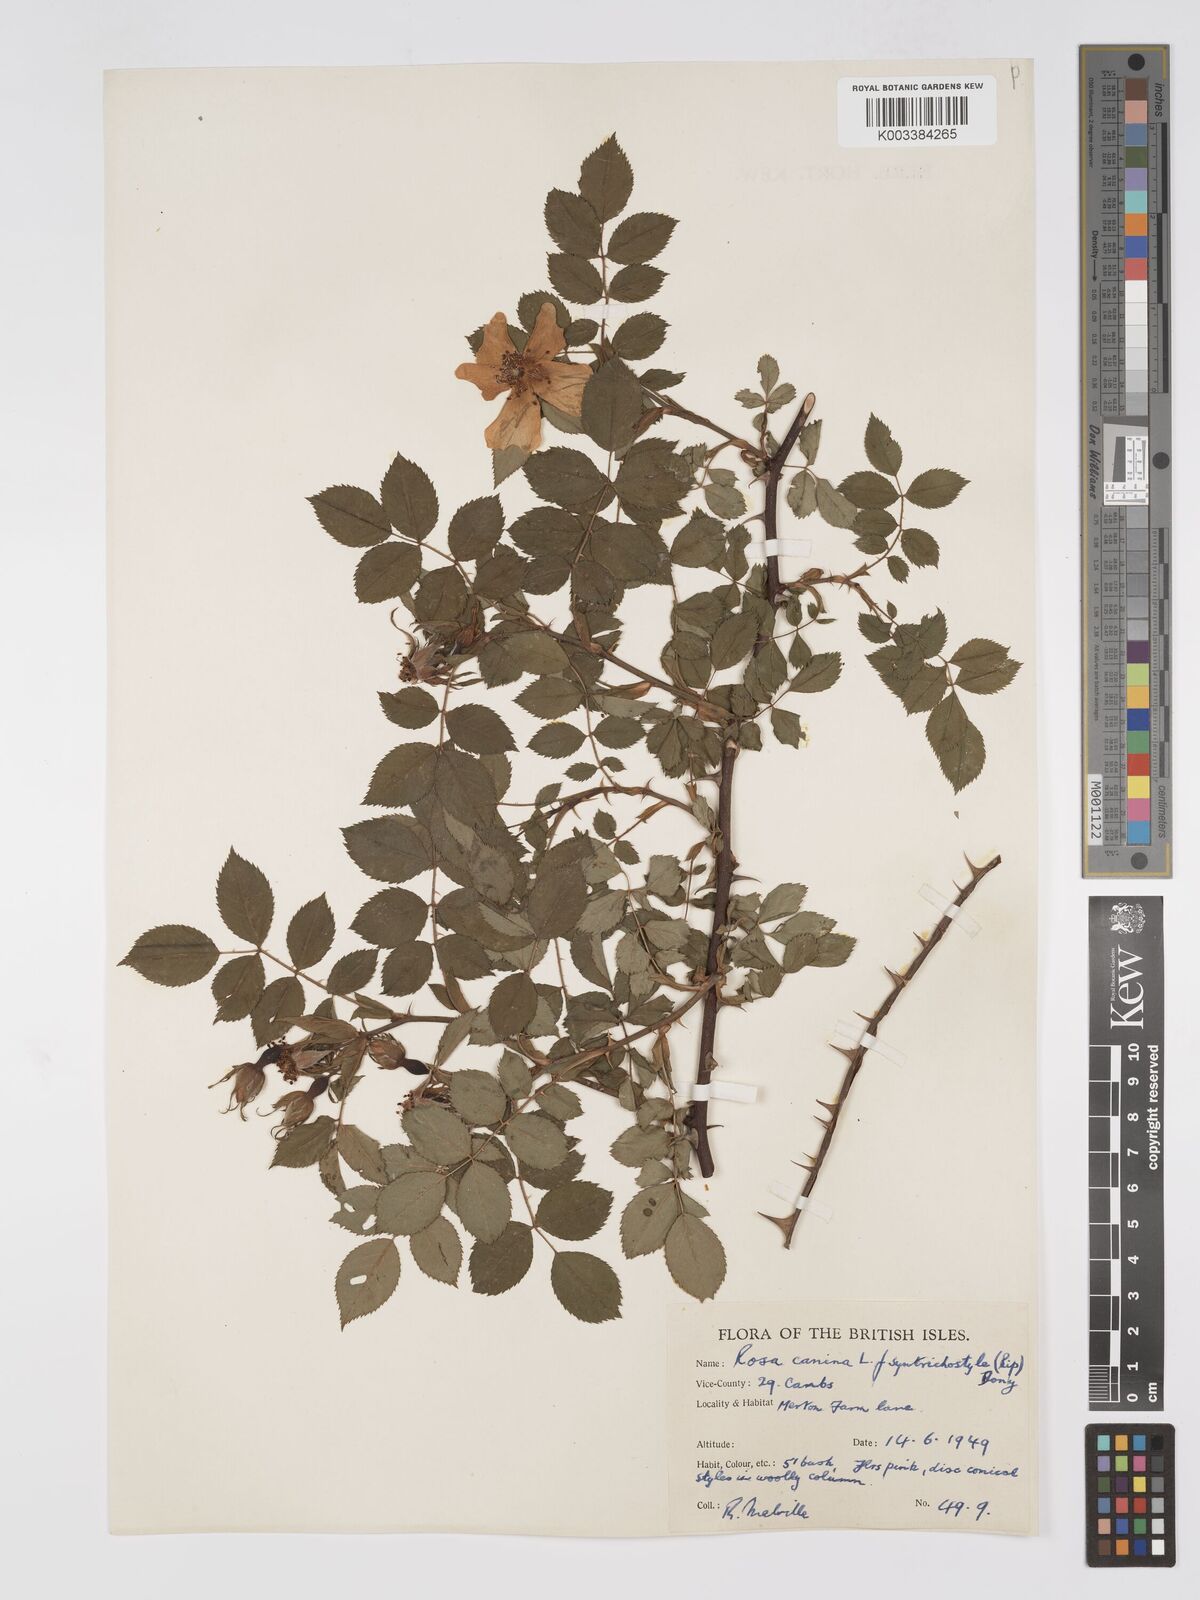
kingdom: Plantae
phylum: Tracheophyta
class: Magnoliopsida
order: Rosales
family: Rosaceae
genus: Rosa
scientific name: Rosa canina
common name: Dog rose
